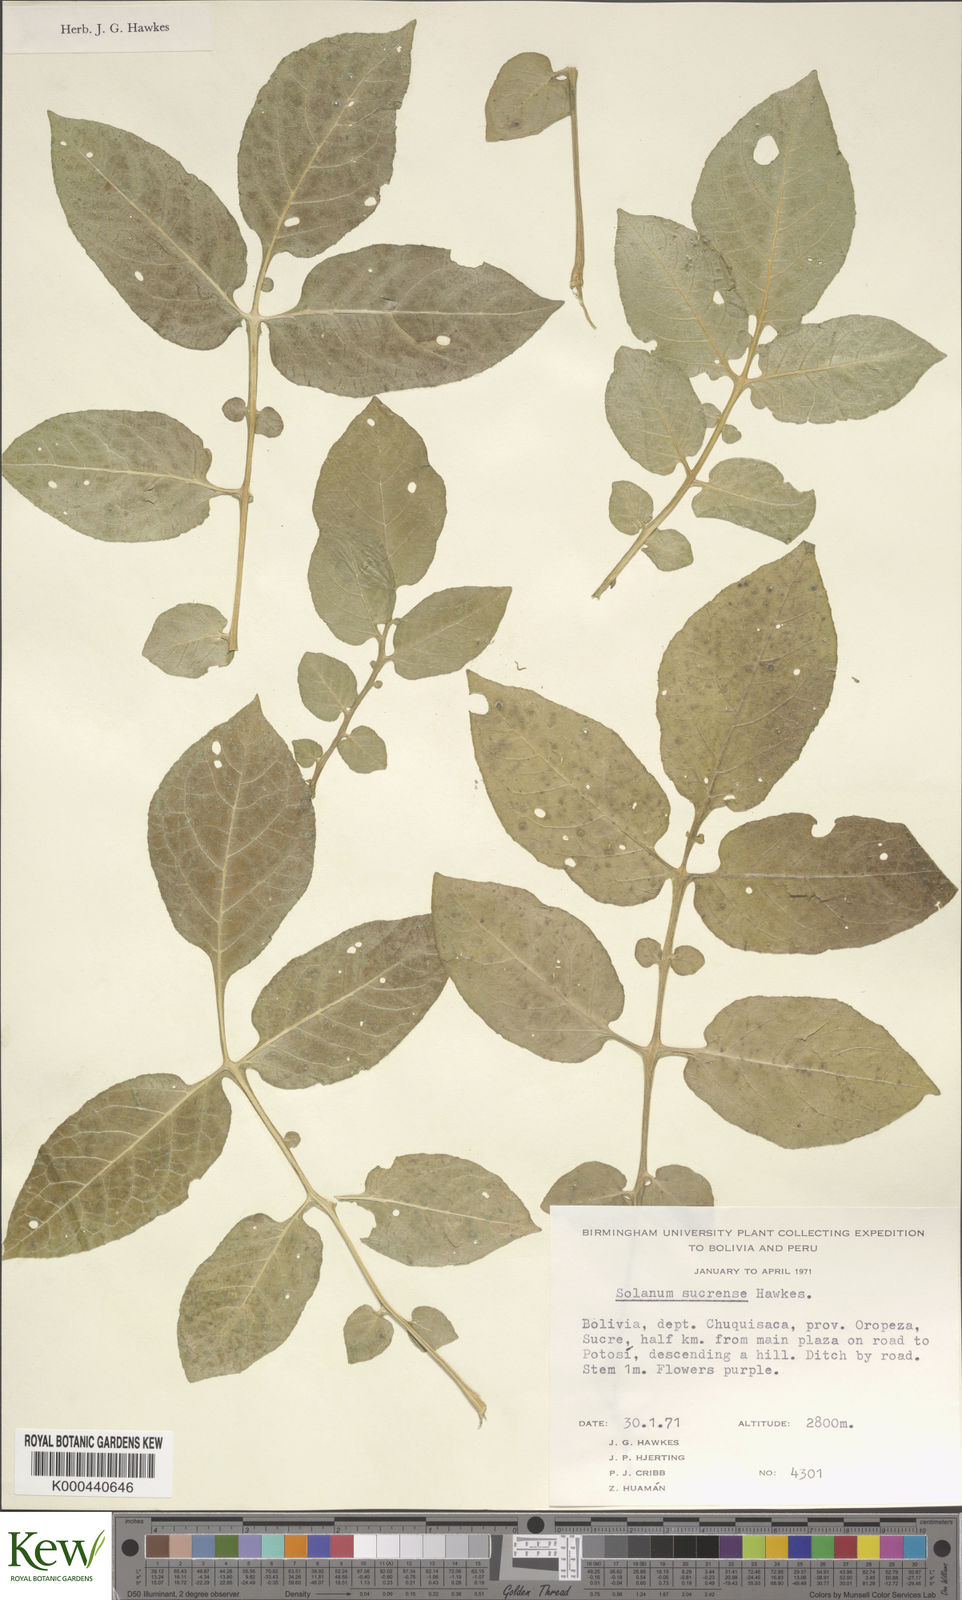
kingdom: Plantae
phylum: Tracheophyta
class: Magnoliopsida
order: Solanales
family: Solanaceae
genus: Solanum
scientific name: Solanum brevicaule
